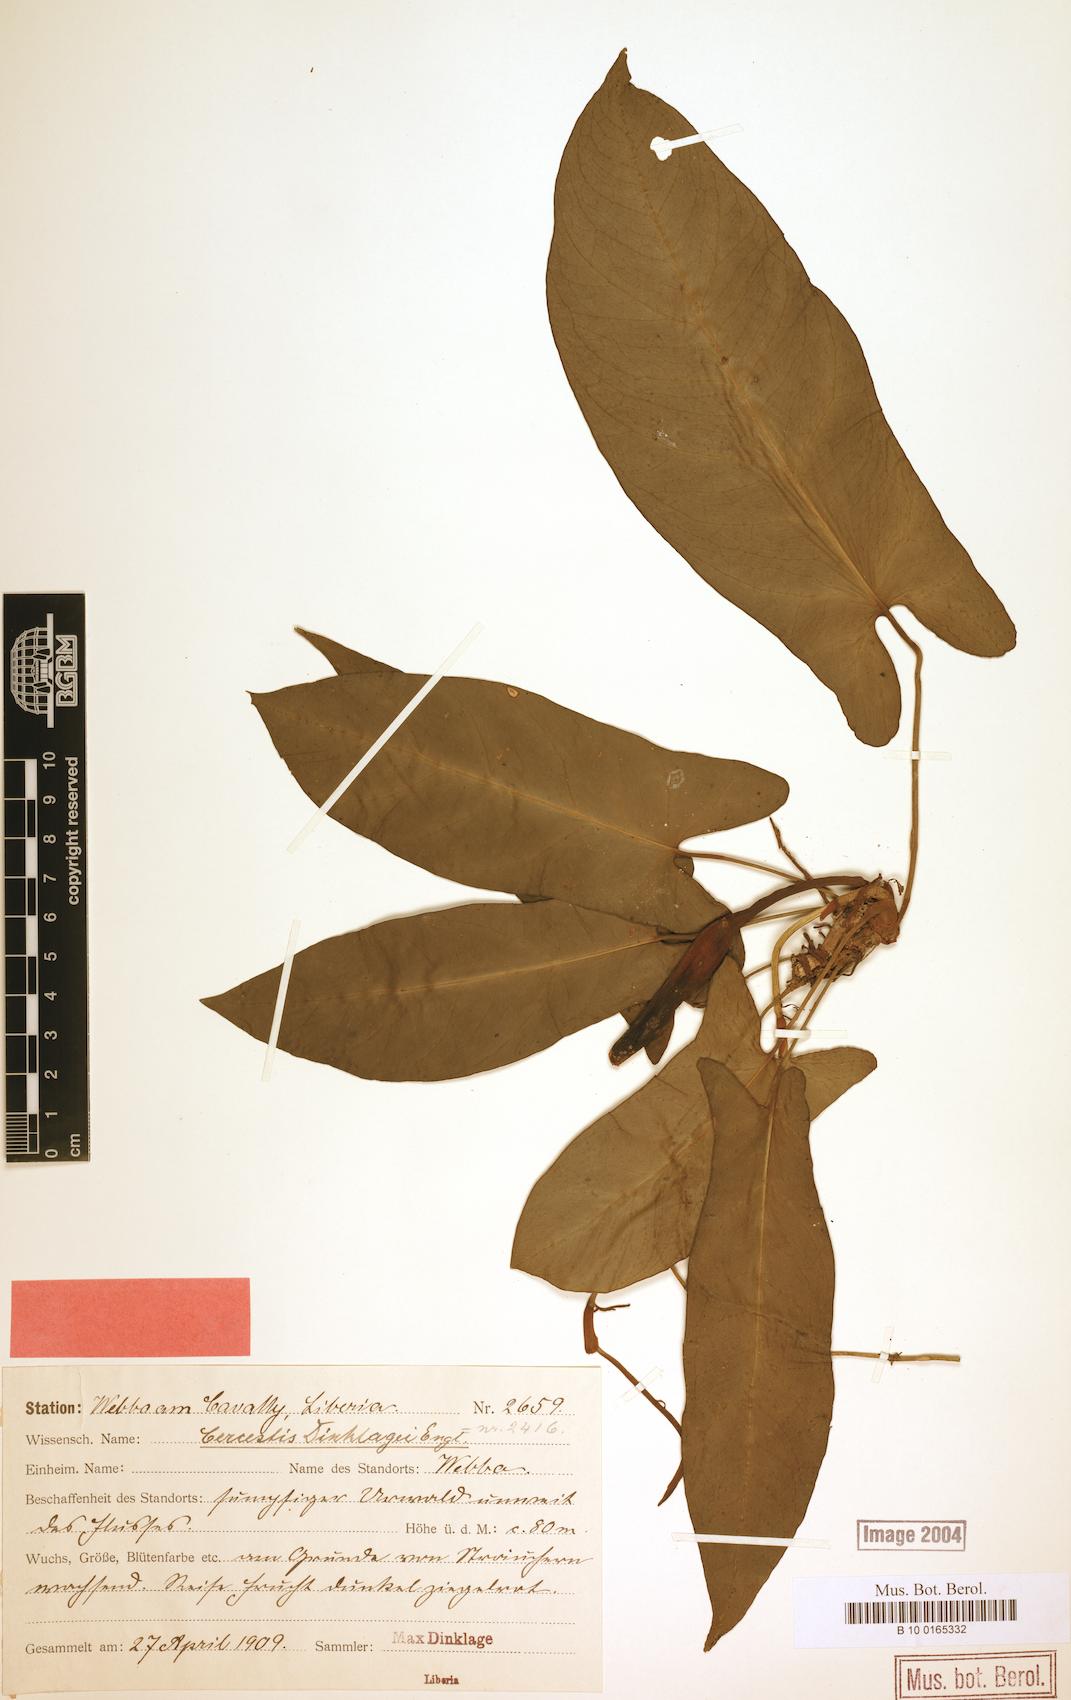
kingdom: Plantae
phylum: Tracheophyta
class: Liliopsida
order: Alismatales
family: Araceae
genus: Cercestis
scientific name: Cercestis dinklagei
